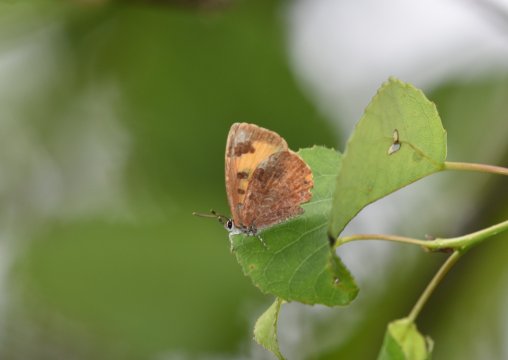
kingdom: Animalia
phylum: Arthropoda
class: Insecta
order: Lepidoptera
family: Lycaenidae
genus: Feniseca
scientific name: Feniseca tarquinius
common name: Harvester
